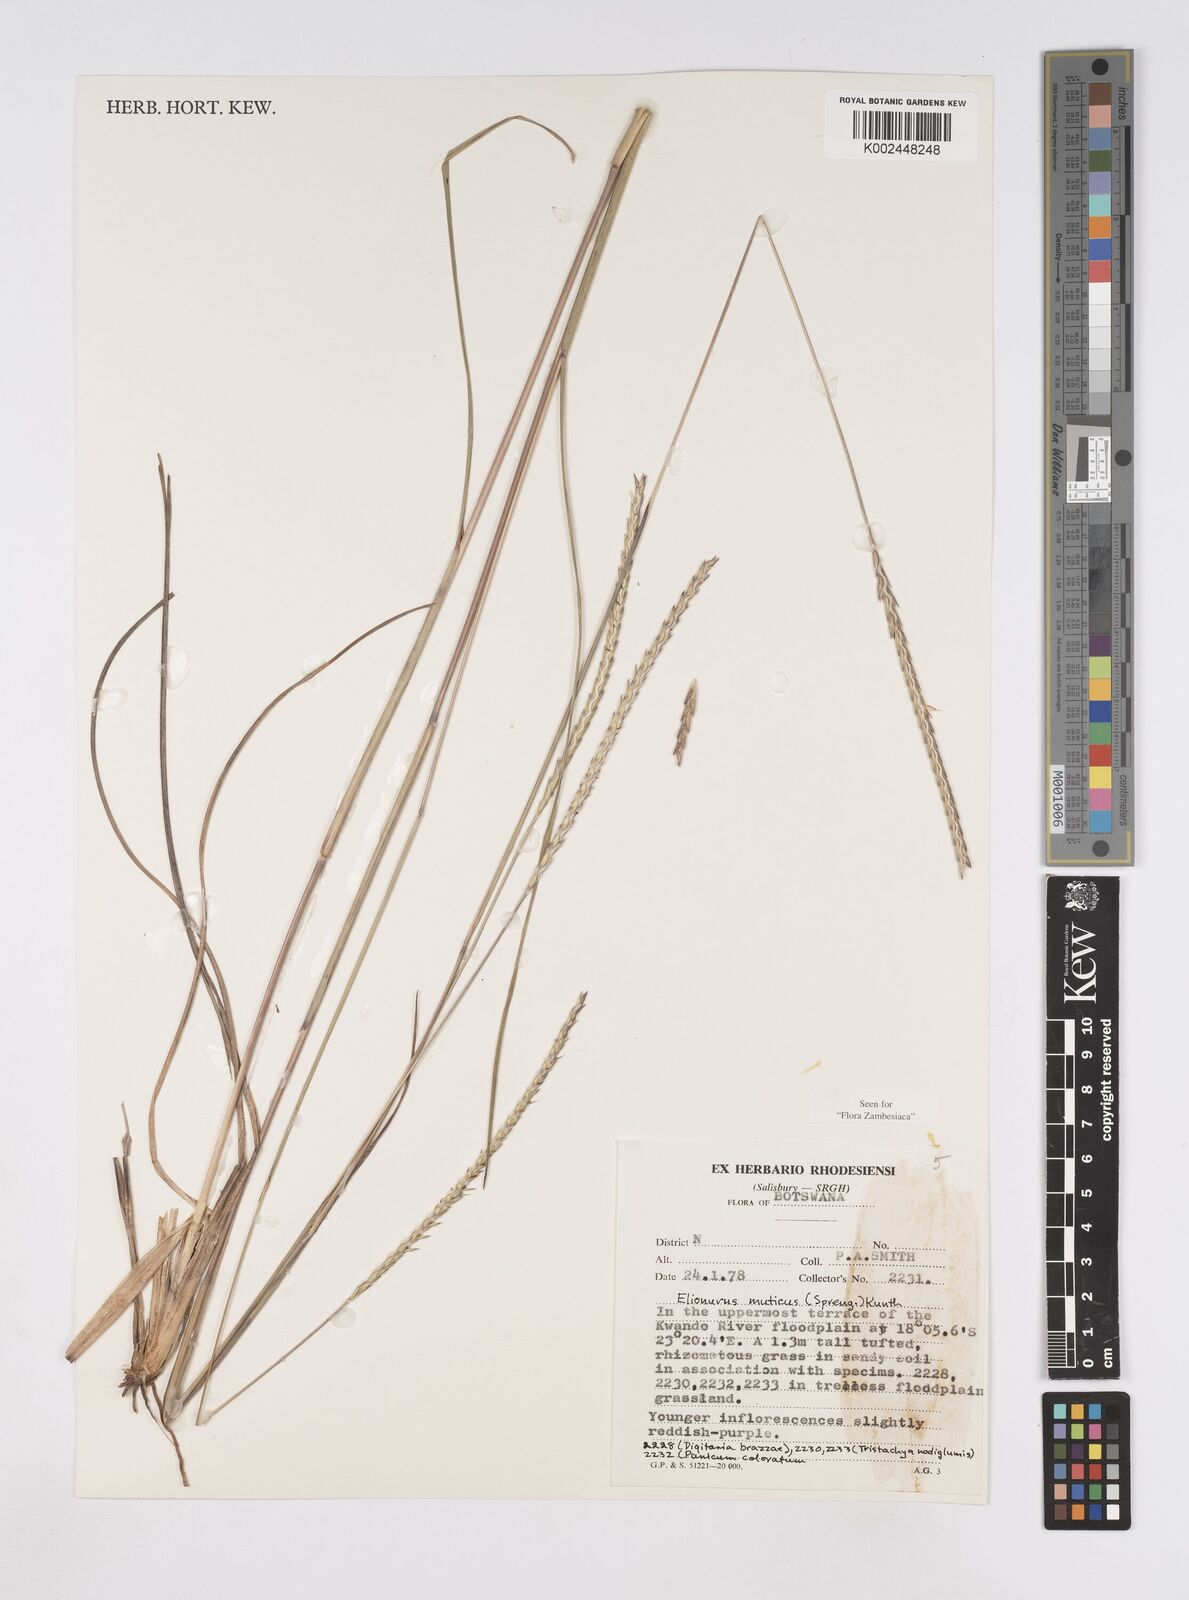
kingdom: Plantae
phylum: Tracheophyta
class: Liliopsida
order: Poales
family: Poaceae
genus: Elionurus
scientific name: Elionurus muticus
